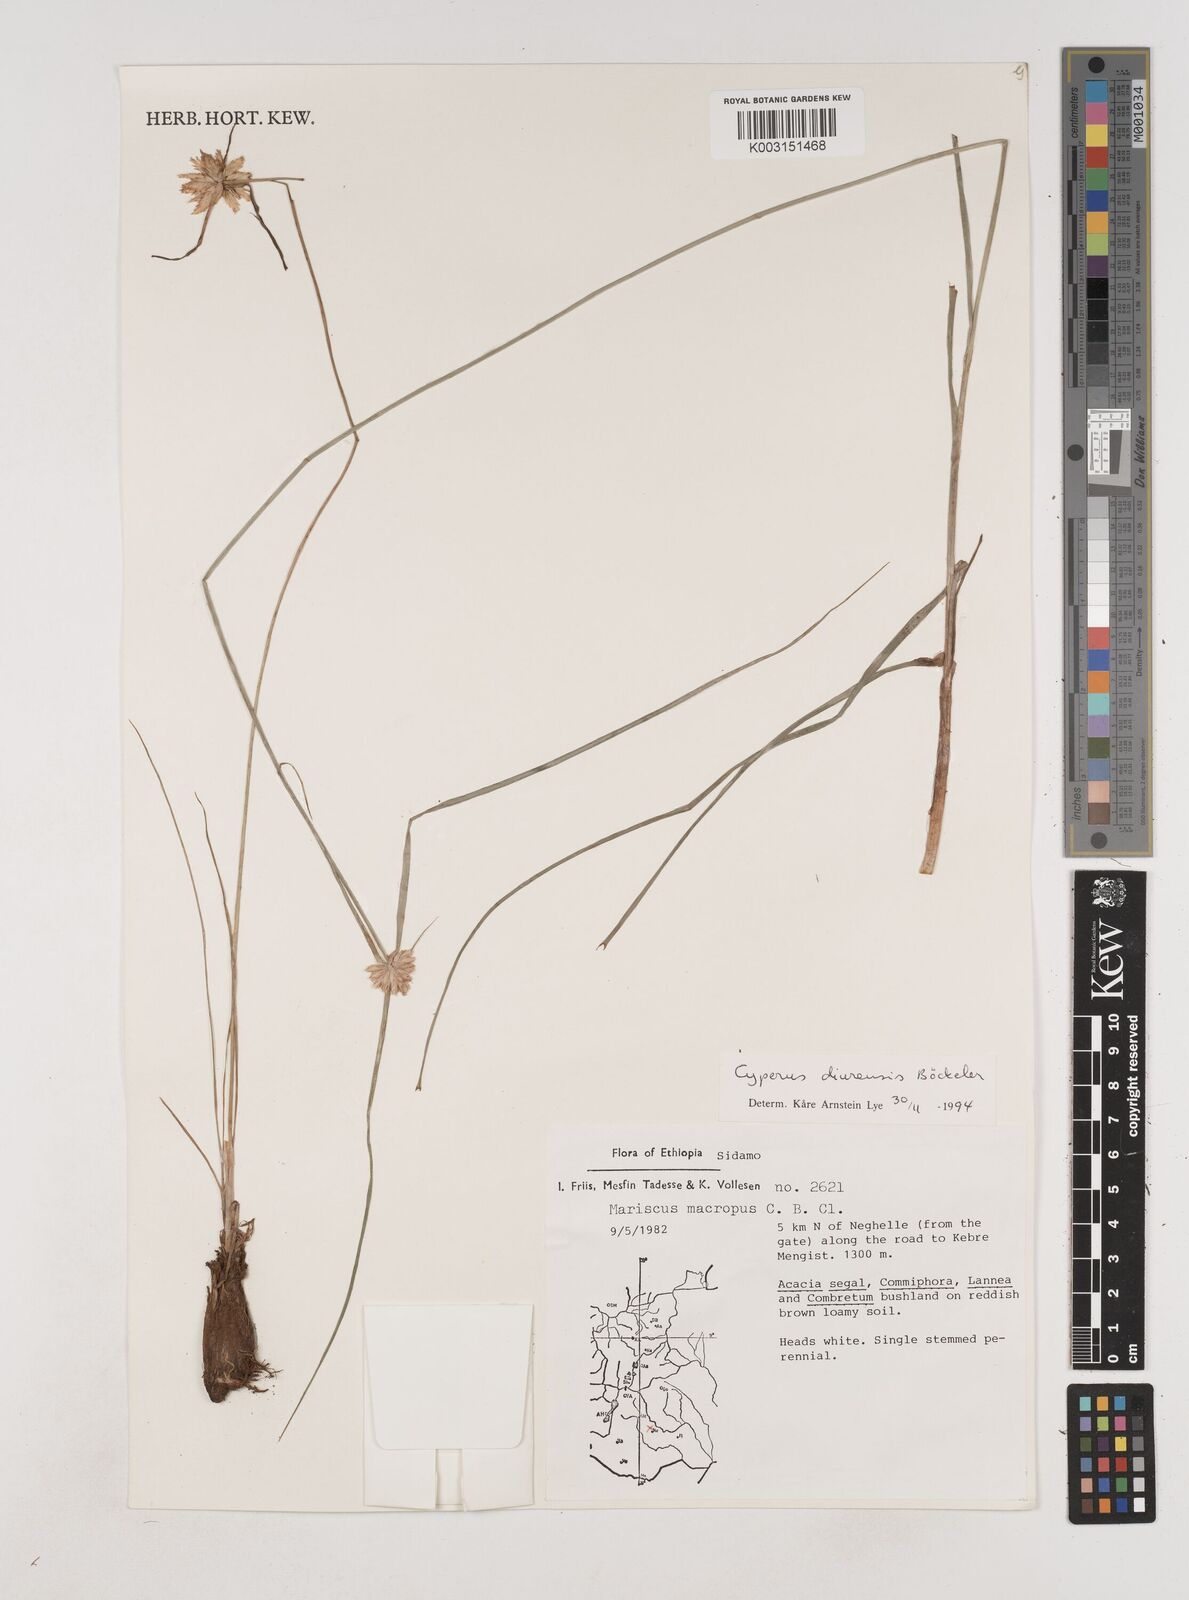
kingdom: Plantae
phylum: Tracheophyta
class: Liliopsida
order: Poales
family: Cyperaceae
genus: Cyperus
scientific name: Cyperus diurensis
